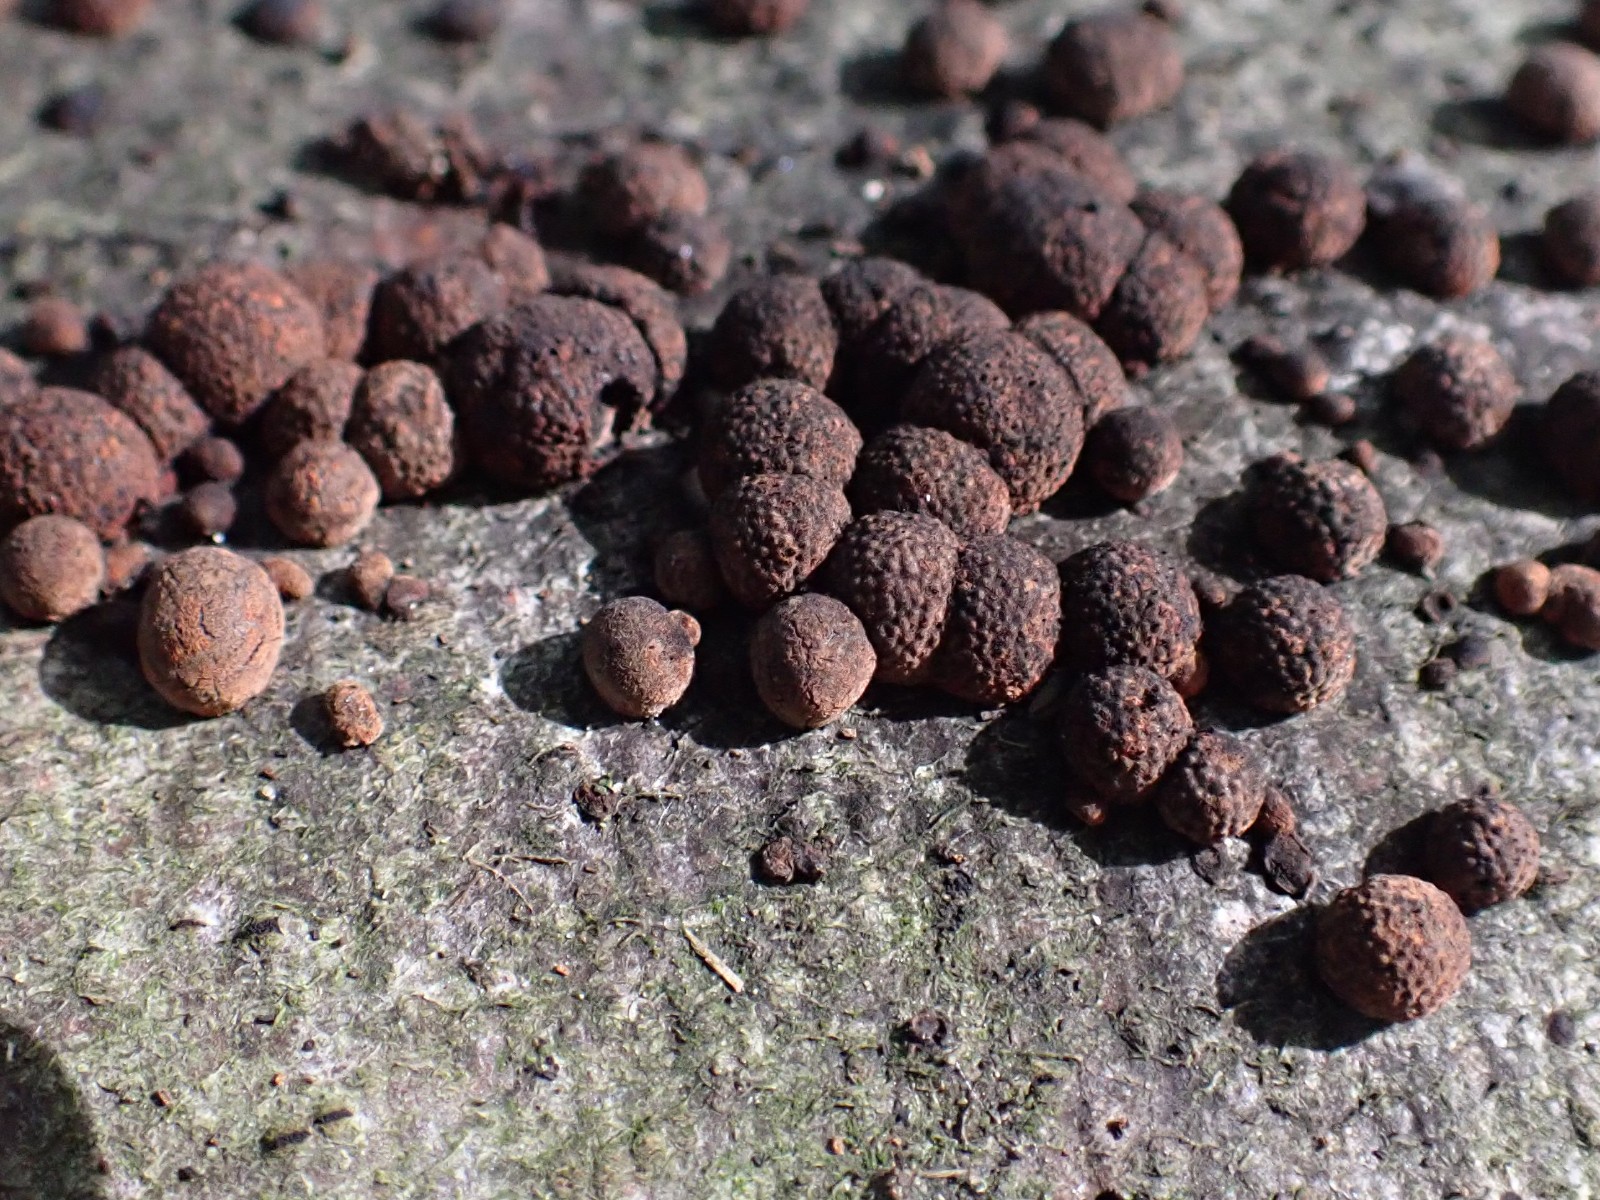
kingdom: Fungi
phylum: Ascomycota
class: Sordariomycetes
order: Xylariales
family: Hypoxylaceae
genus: Hypoxylon
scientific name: Hypoxylon fragiforme
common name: kuljordbær
